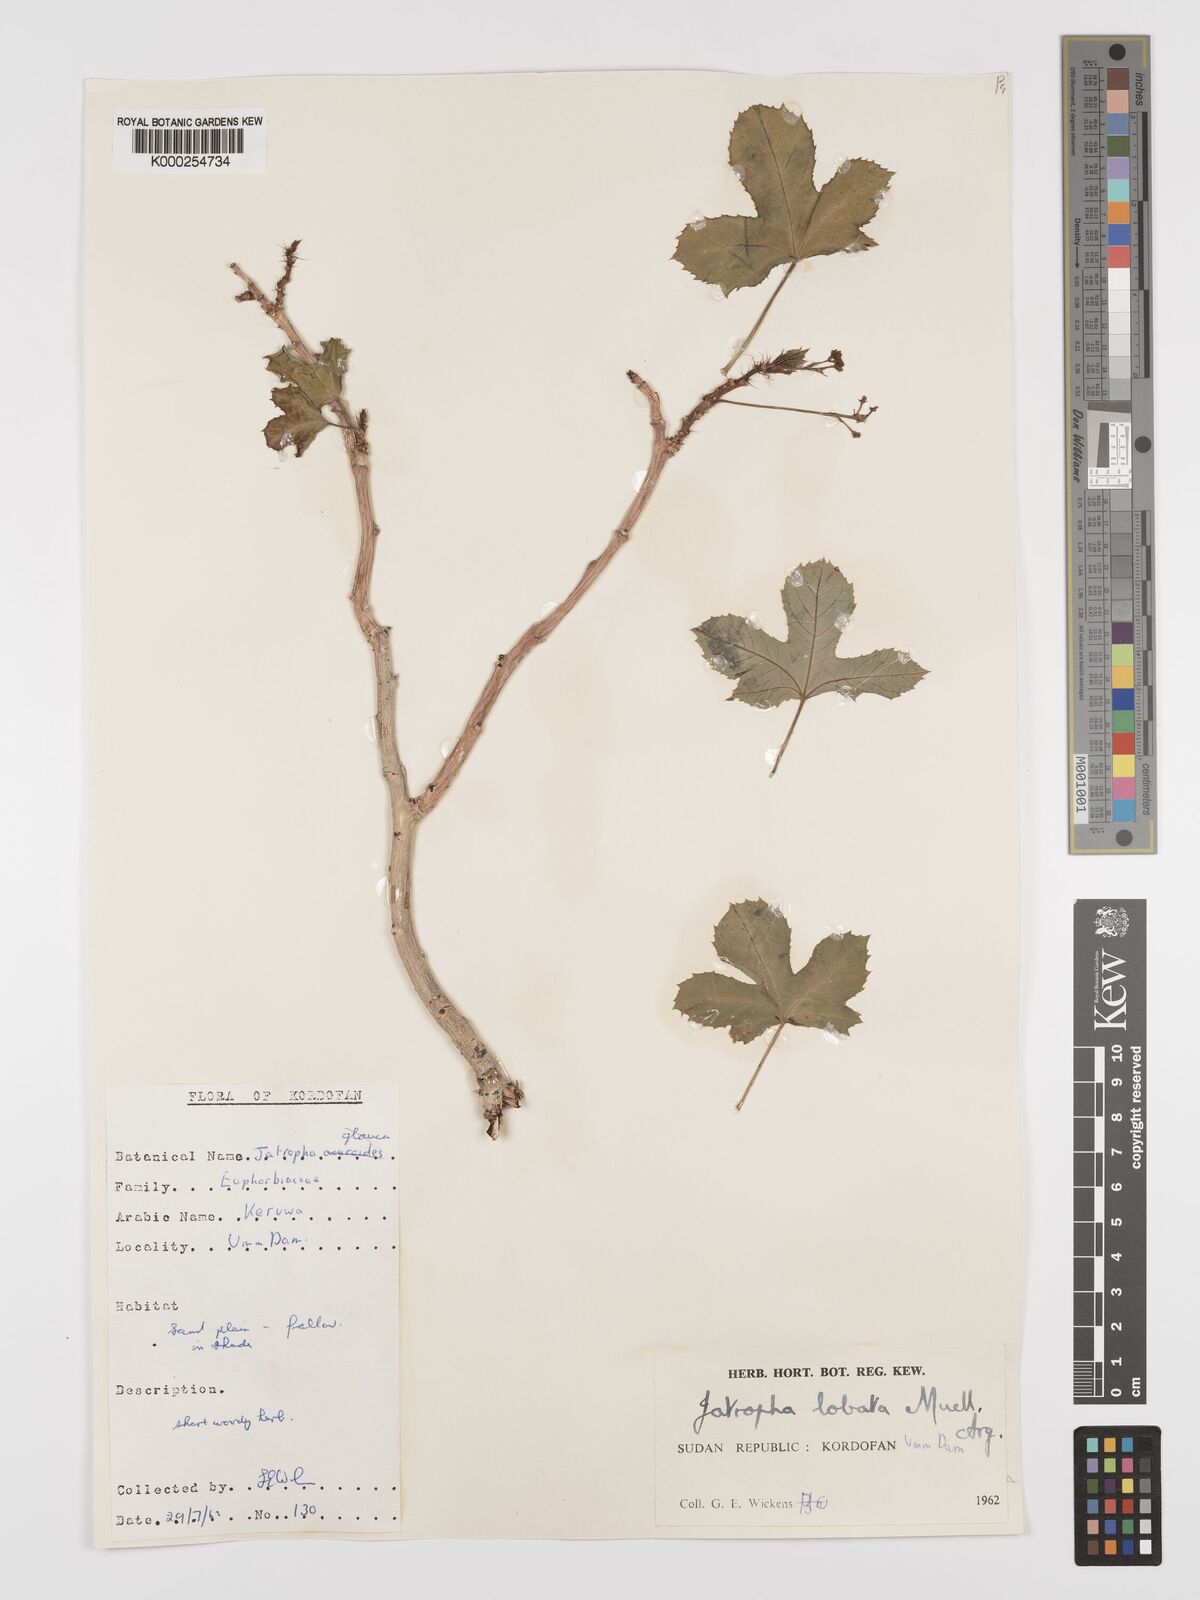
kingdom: Plantae
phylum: Tracheophyta
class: Magnoliopsida
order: Malpighiales
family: Euphorbiaceae
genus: Jatropha
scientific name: Jatropha glauca
